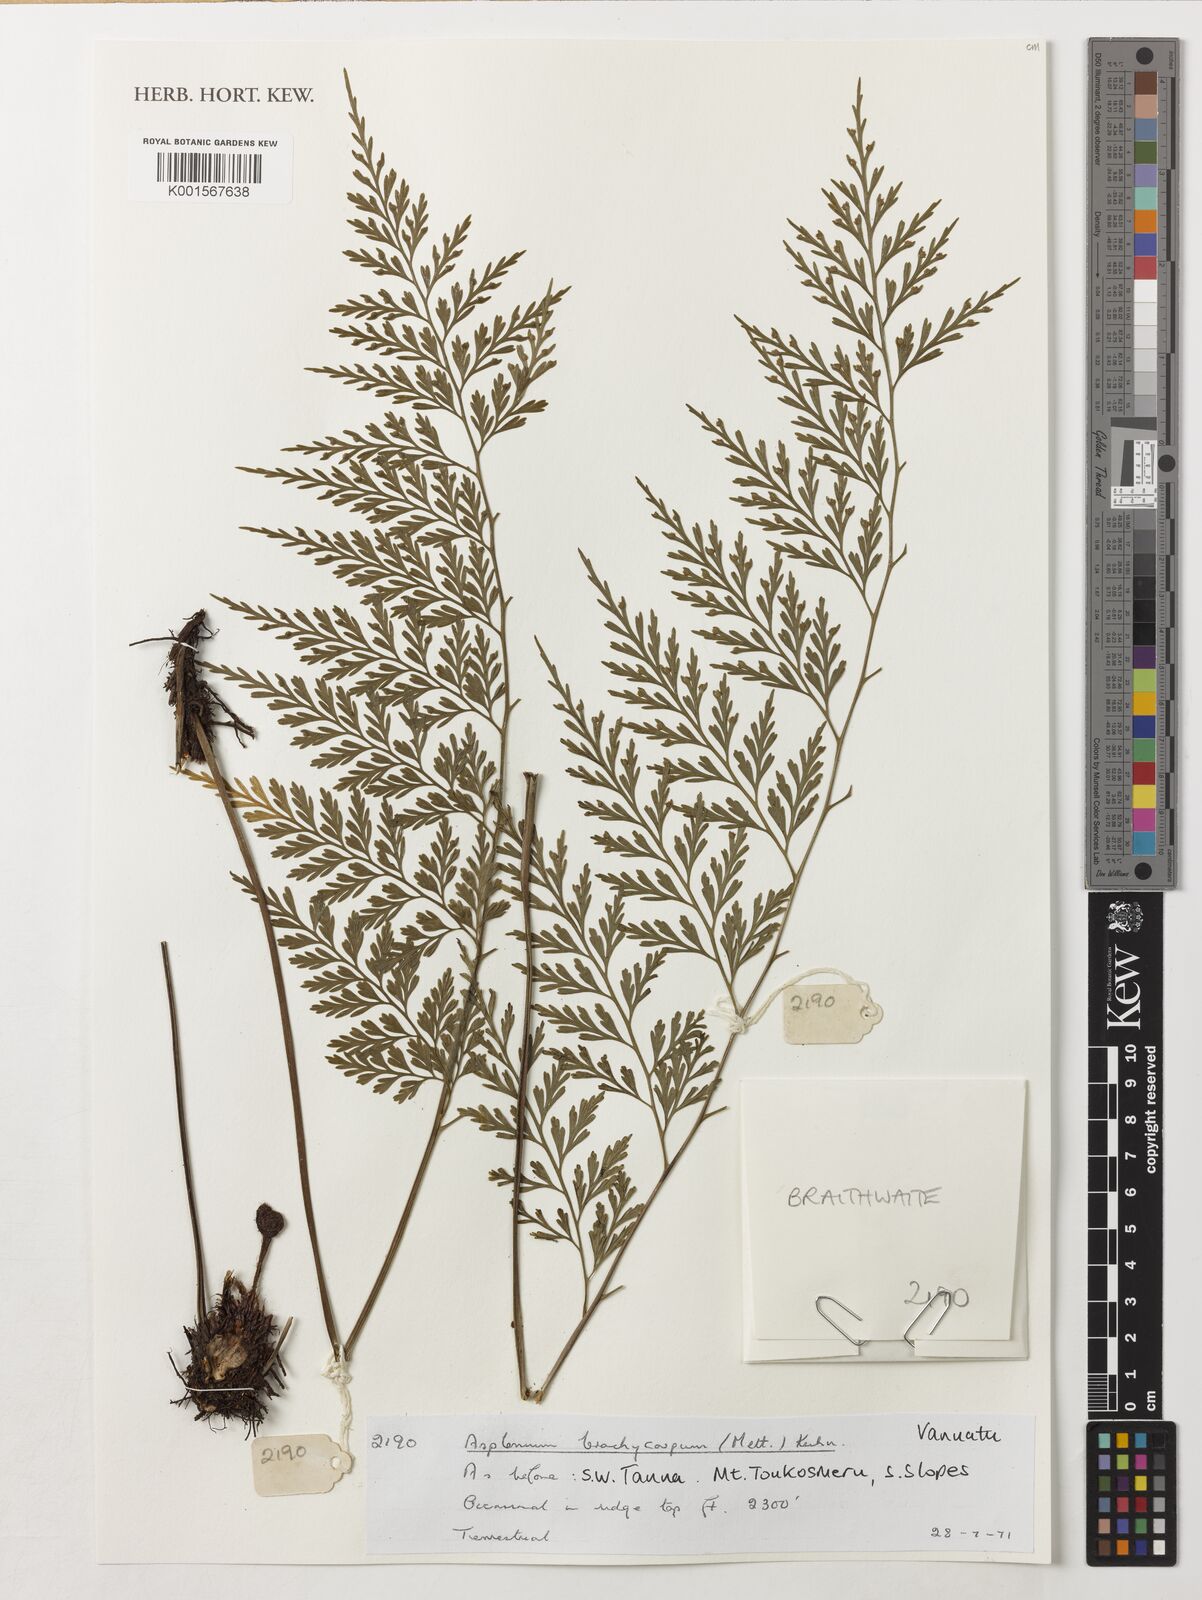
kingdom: Plantae
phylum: Tracheophyta
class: Polypodiopsida
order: Polypodiales
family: Aspleniaceae
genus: Asplenium
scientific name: Asplenium brachycarpum
